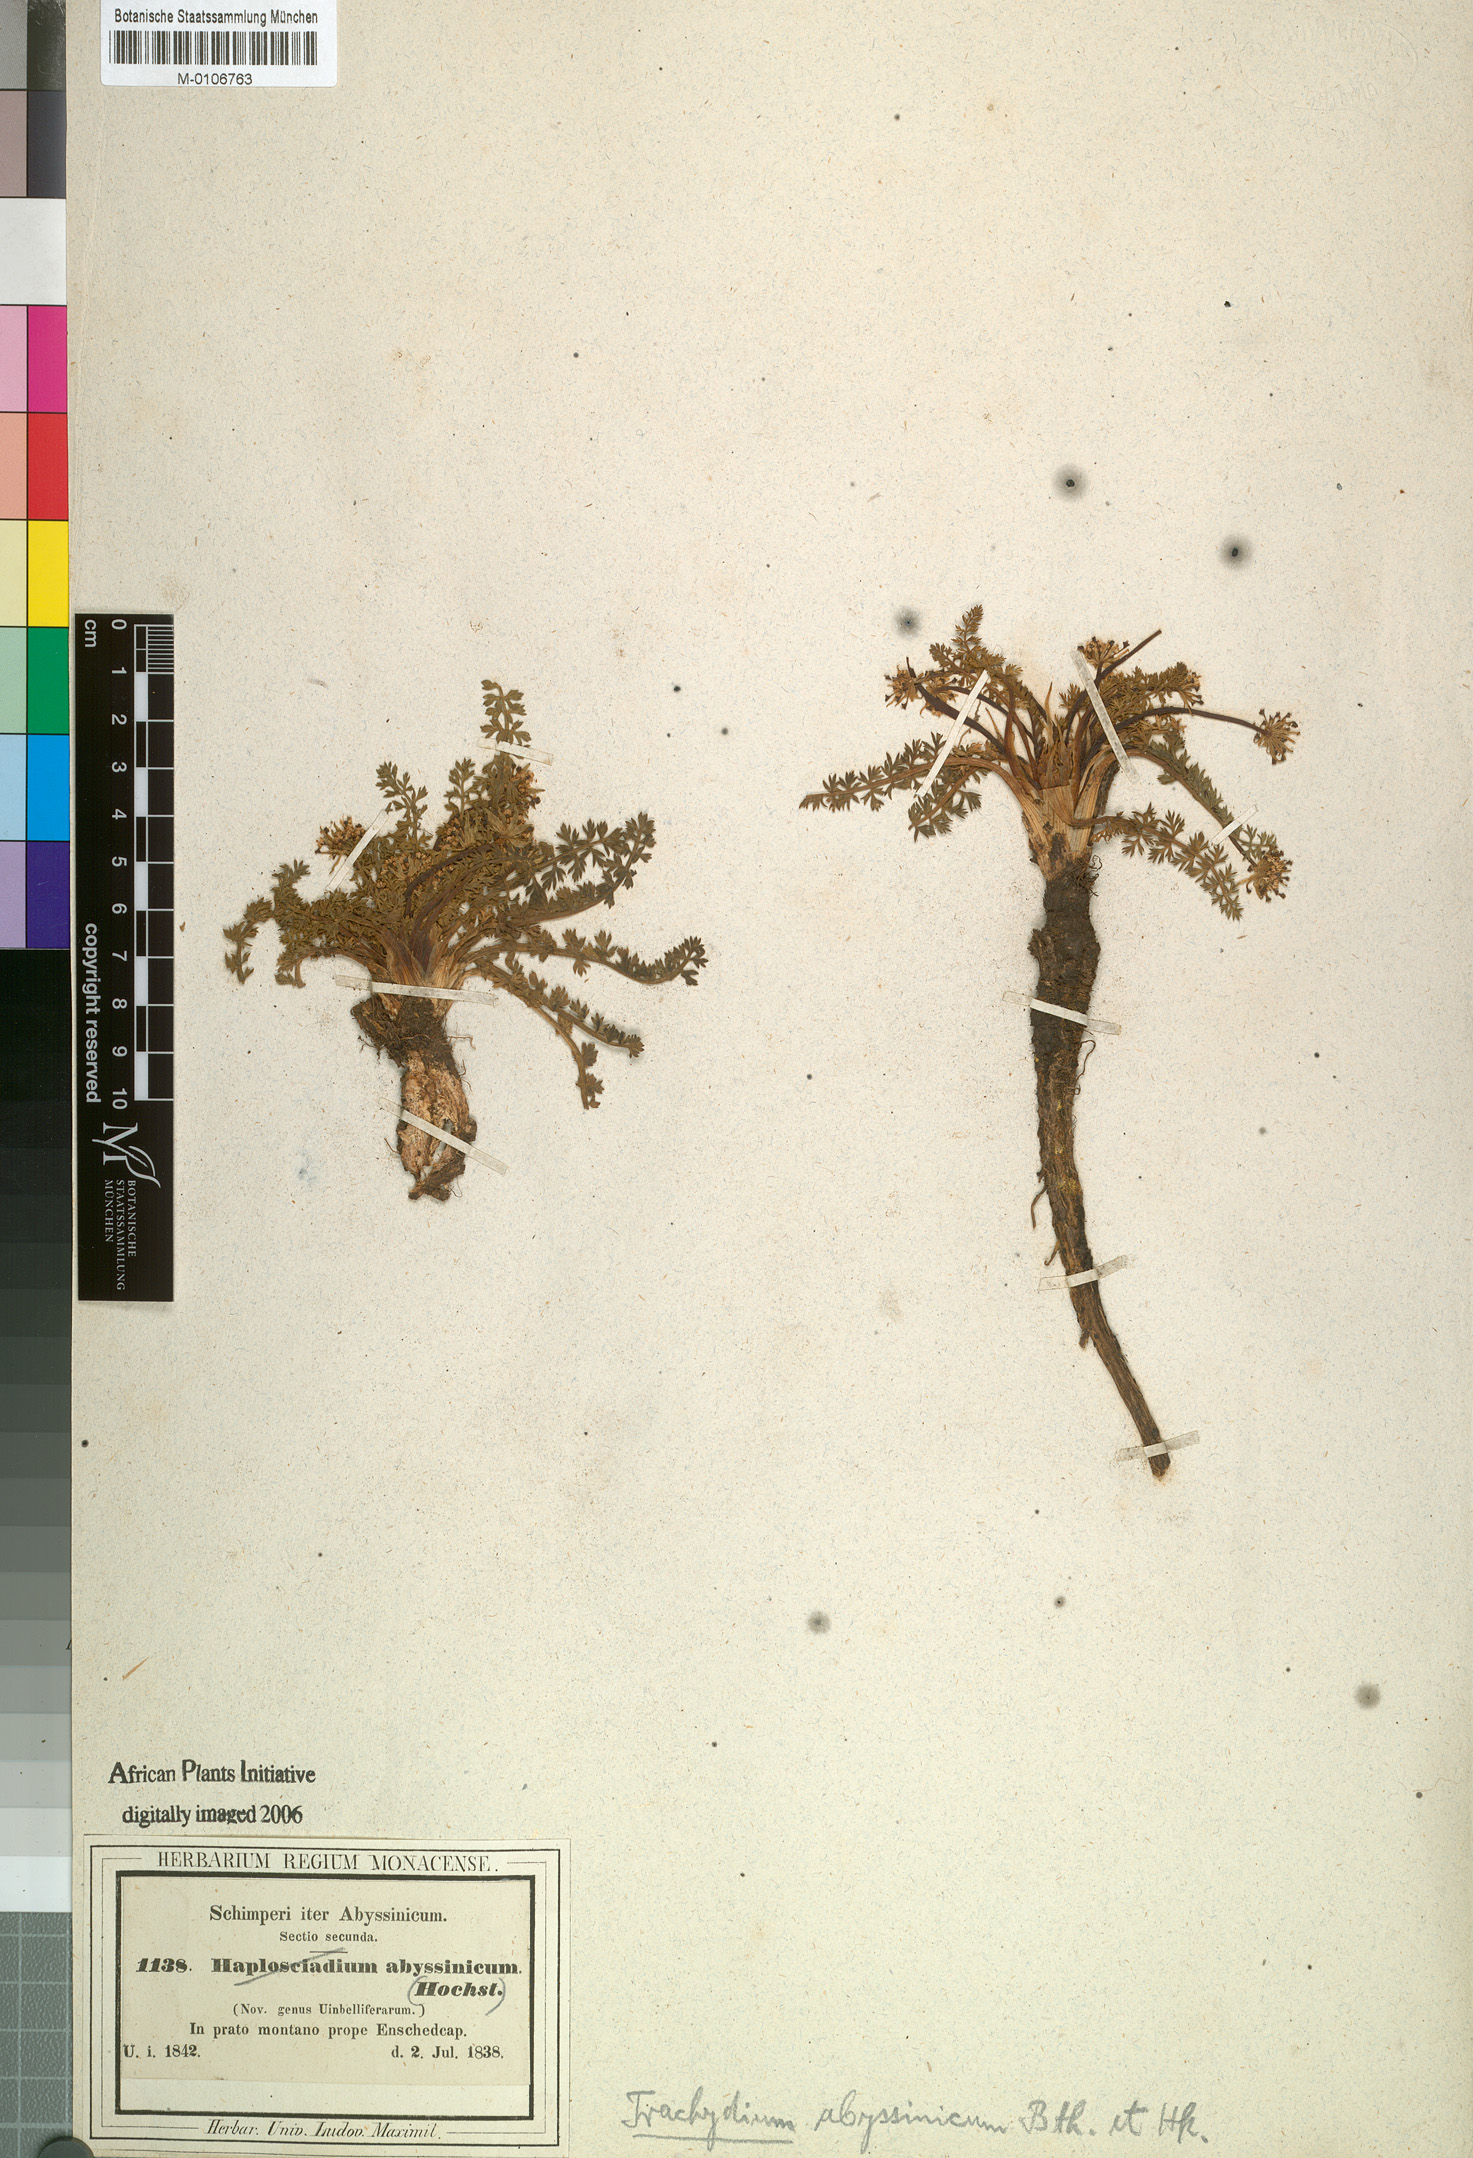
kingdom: Plantae
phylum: Tracheophyta
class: Magnoliopsida
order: Apiales
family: Apiaceae
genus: Haplosciadium
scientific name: Haplosciadium abyssinicum
